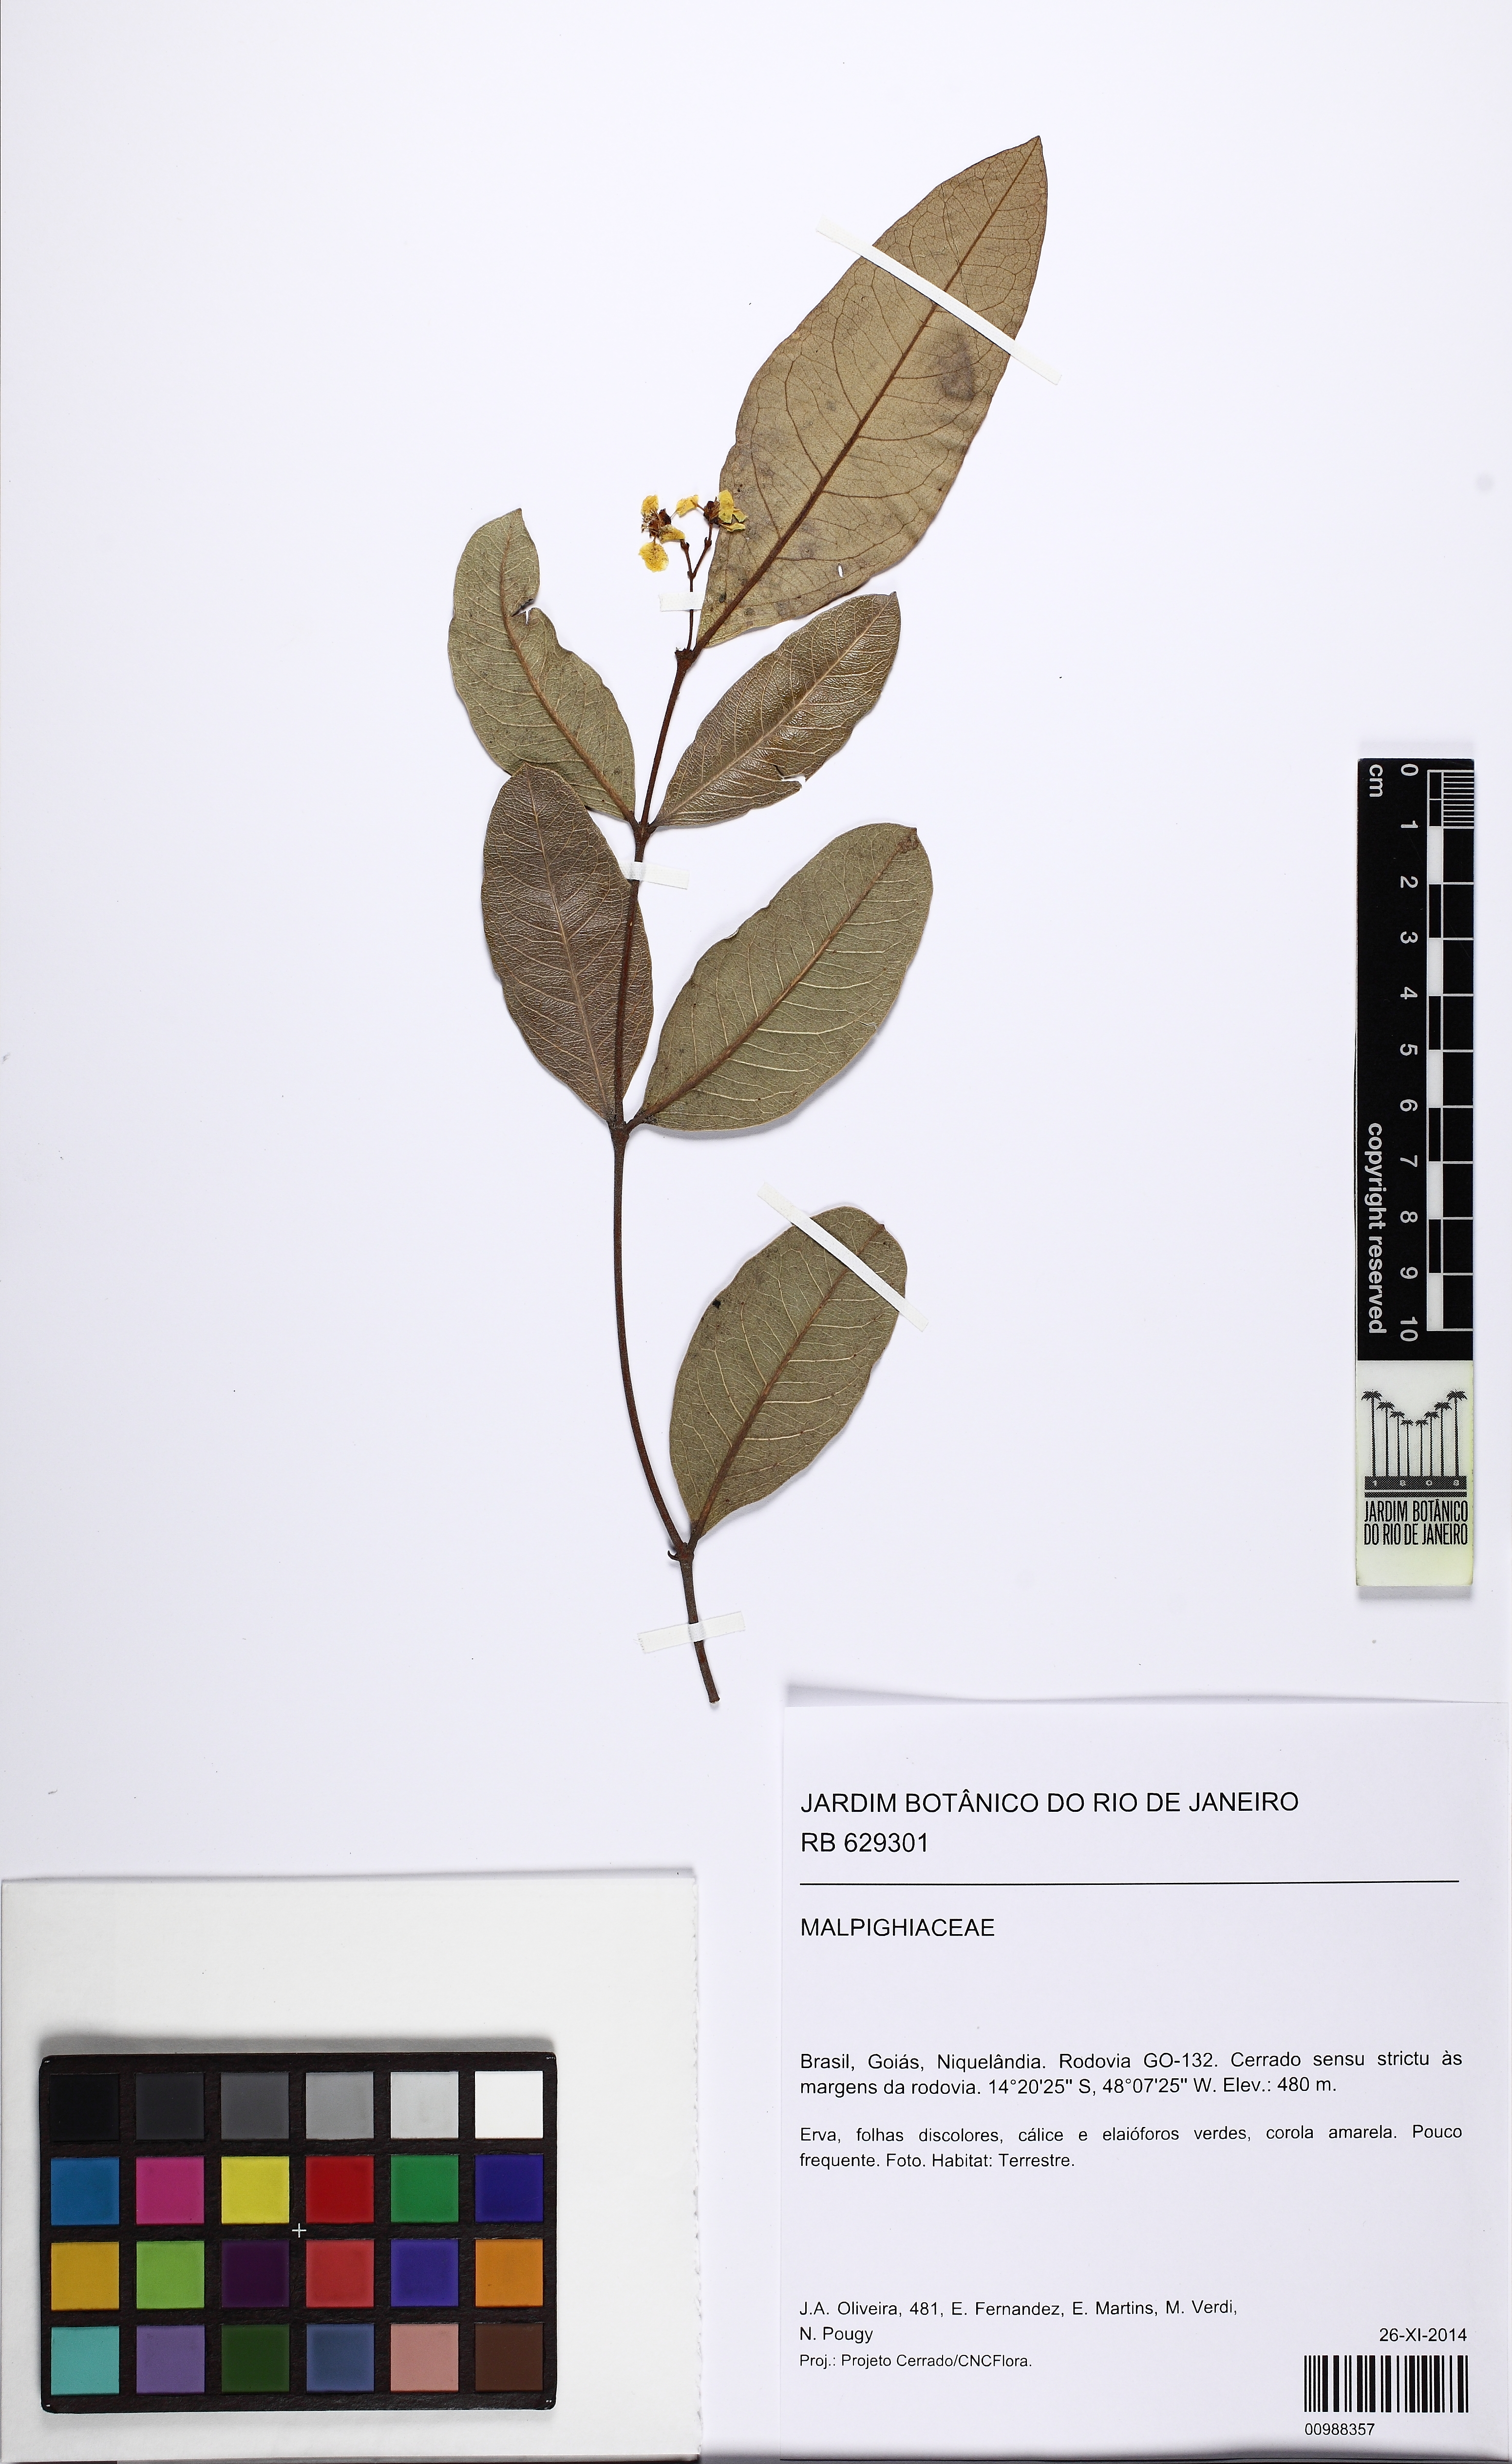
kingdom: Plantae
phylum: Tracheophyta
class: Magnoliopsida
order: Malpighiales
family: Malpighiaceae
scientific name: Malpighiaceae
